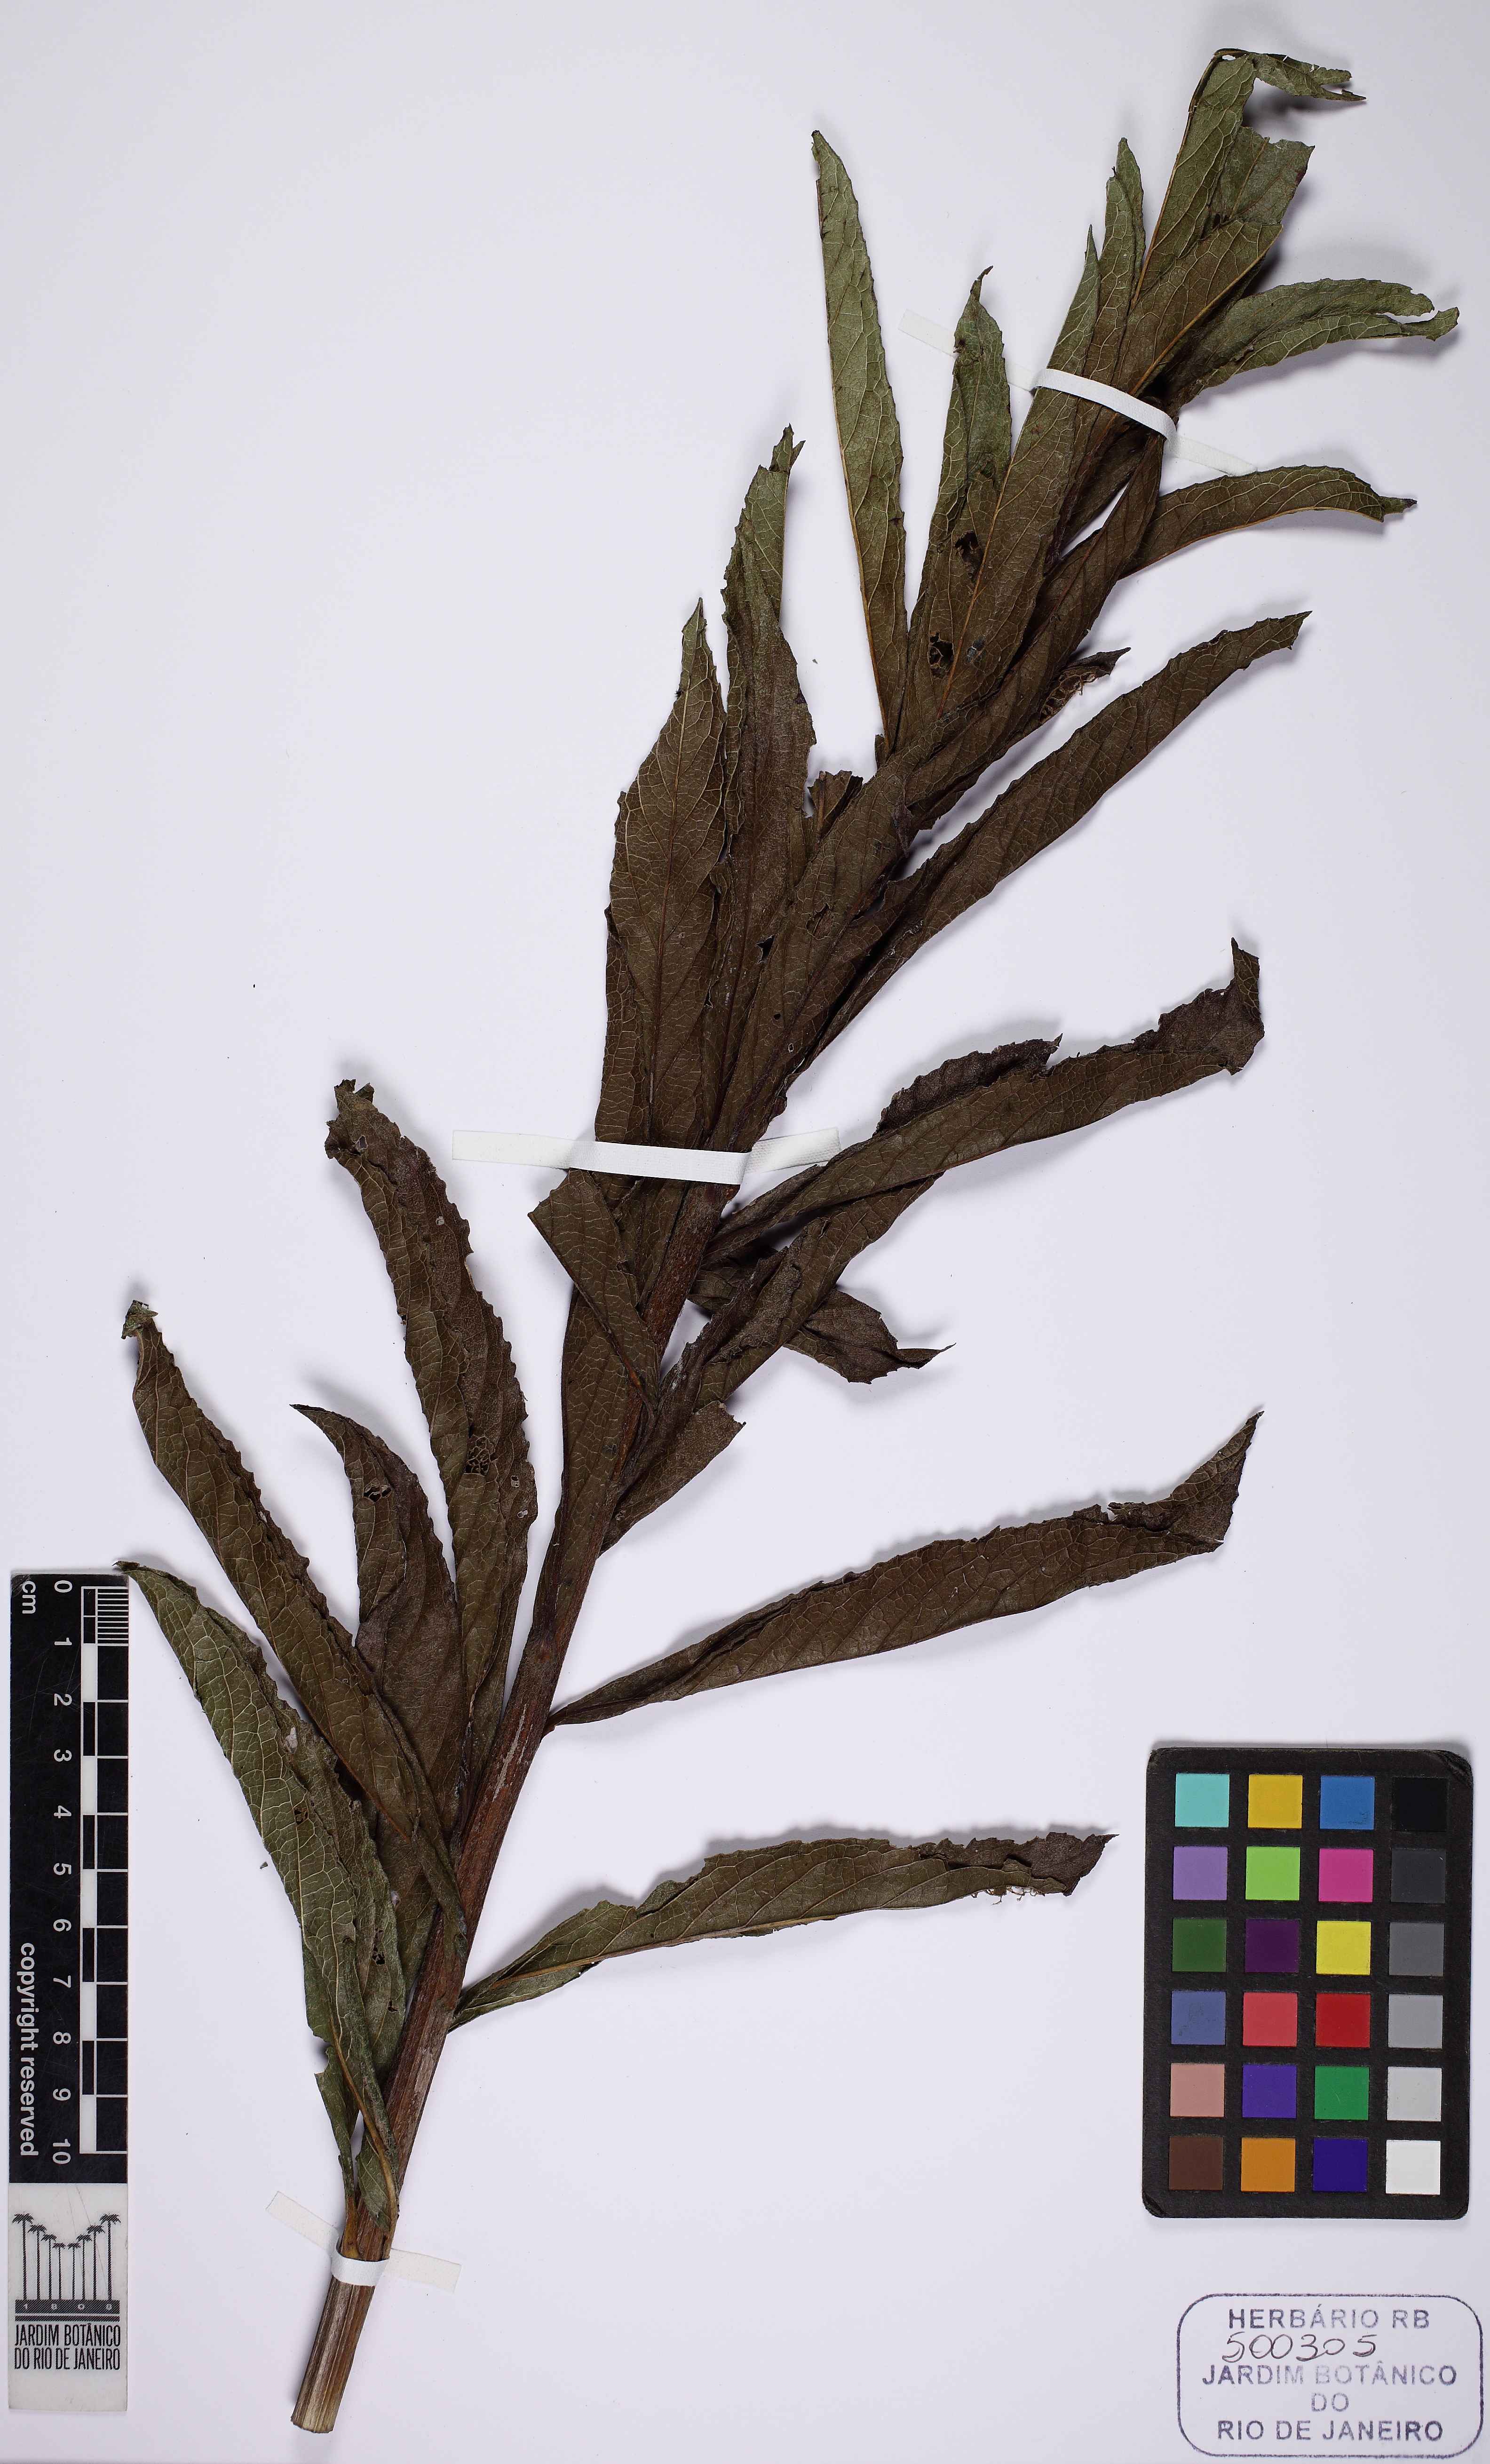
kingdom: Plantae
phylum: Tracheophyta
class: Magnoliopsida
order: Asterales
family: Asteraceae
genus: Lessingianthus
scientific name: Lessingianthus glabratus
